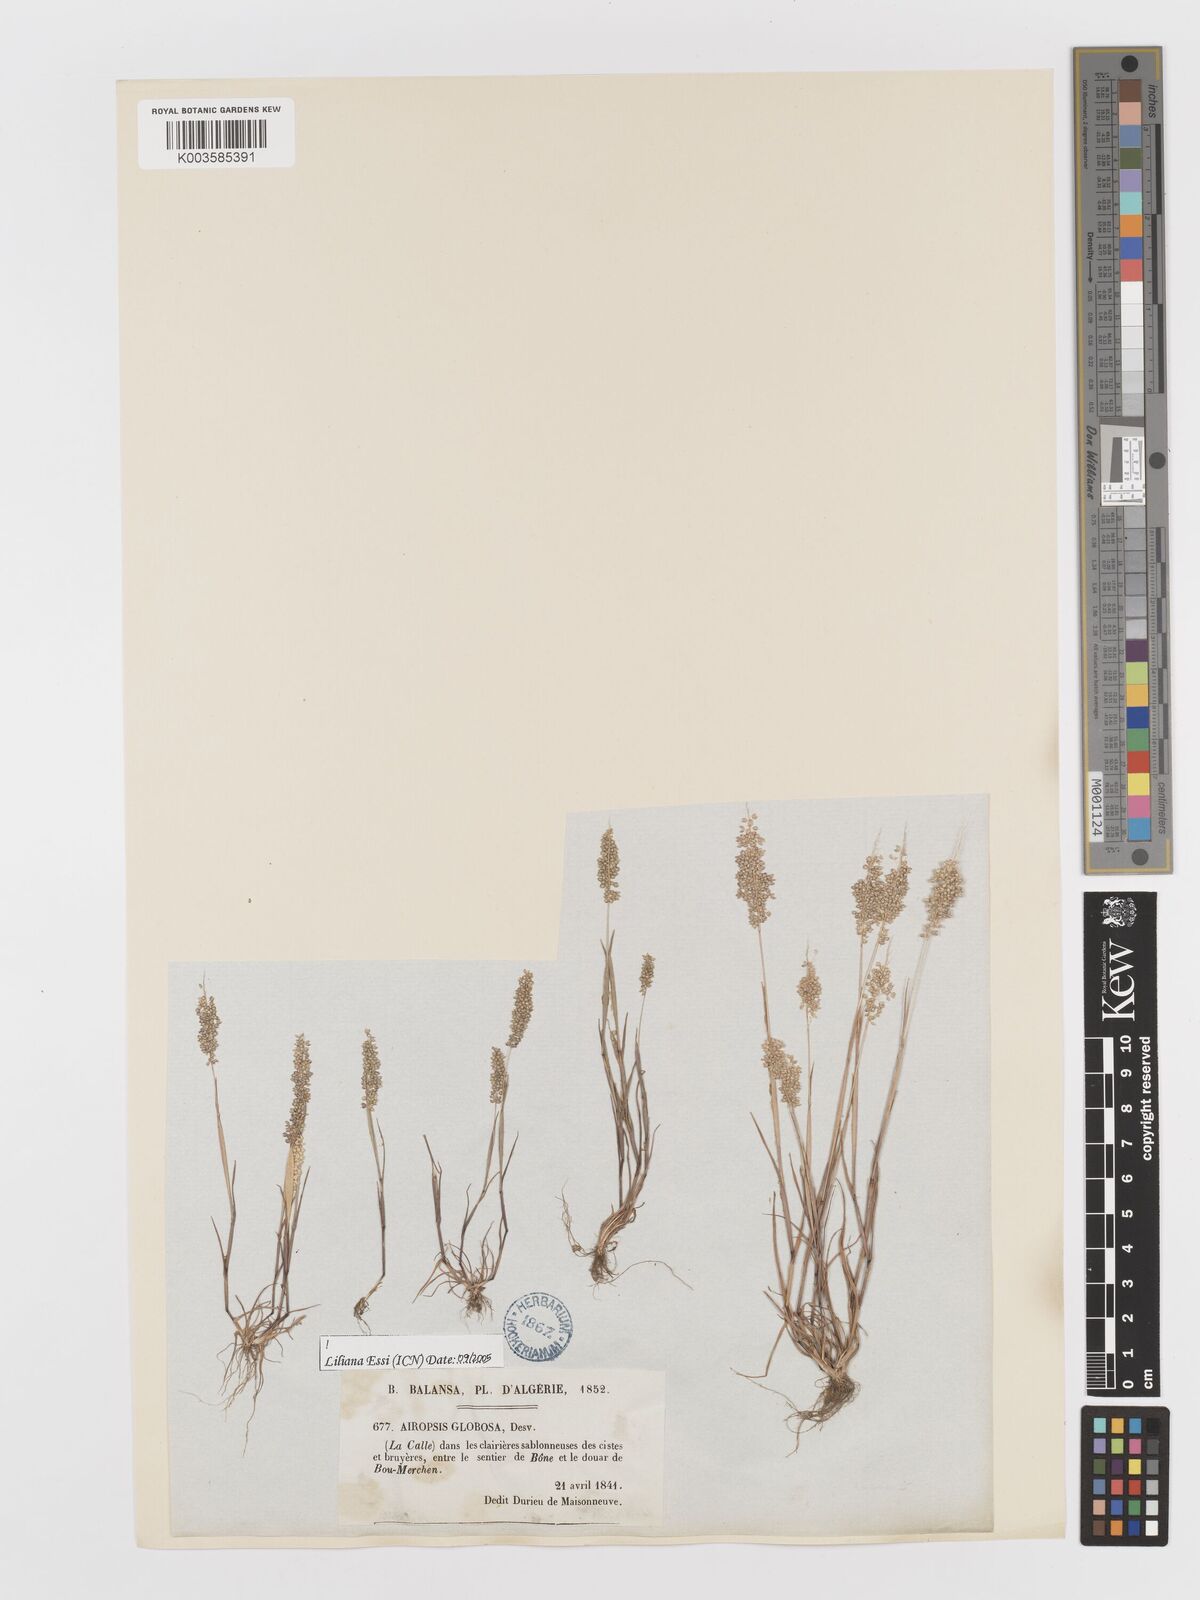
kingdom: Plantae
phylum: Tracheophyta
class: Liliopsida
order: Poales
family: Poaceae
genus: Airopsis
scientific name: Airopsis tenella
